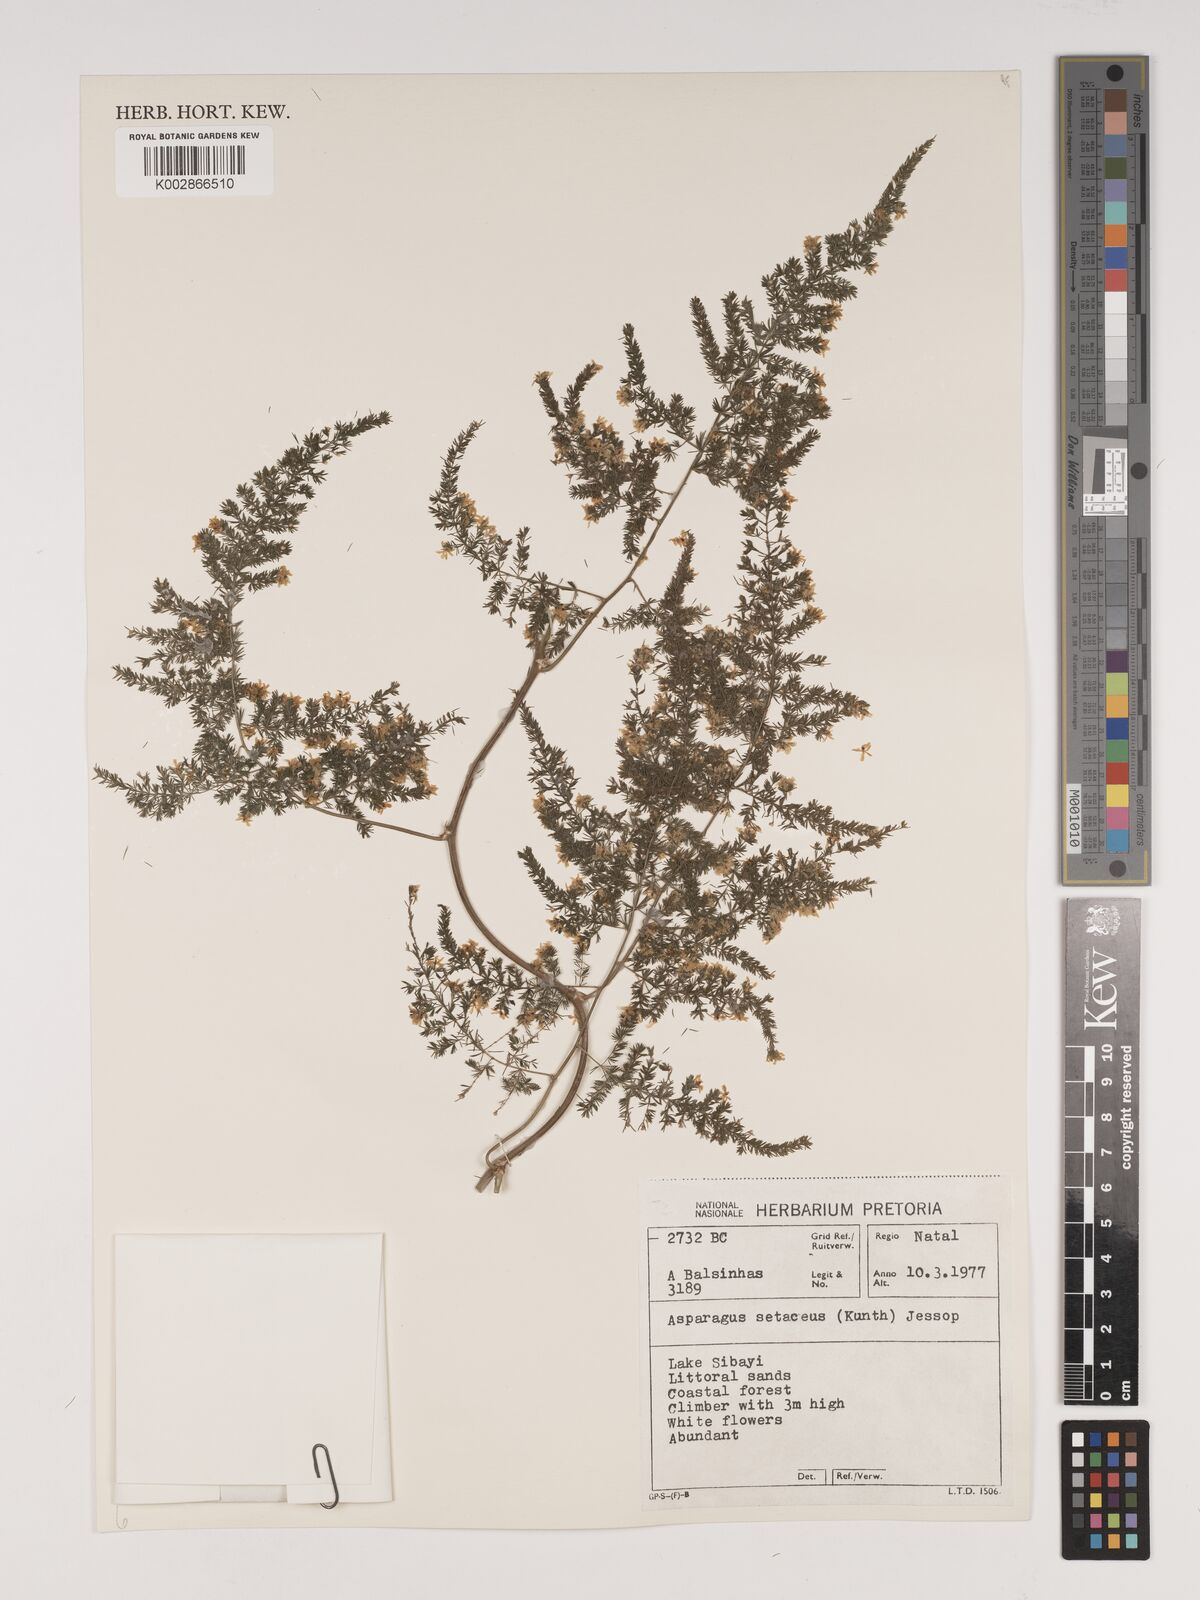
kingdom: Plantae
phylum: Tracheophyta
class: Liliopsida
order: Asparagales
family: Asparagaceae
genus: Asparagus
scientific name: Asparagus setaceus
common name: Common asparagus fern
